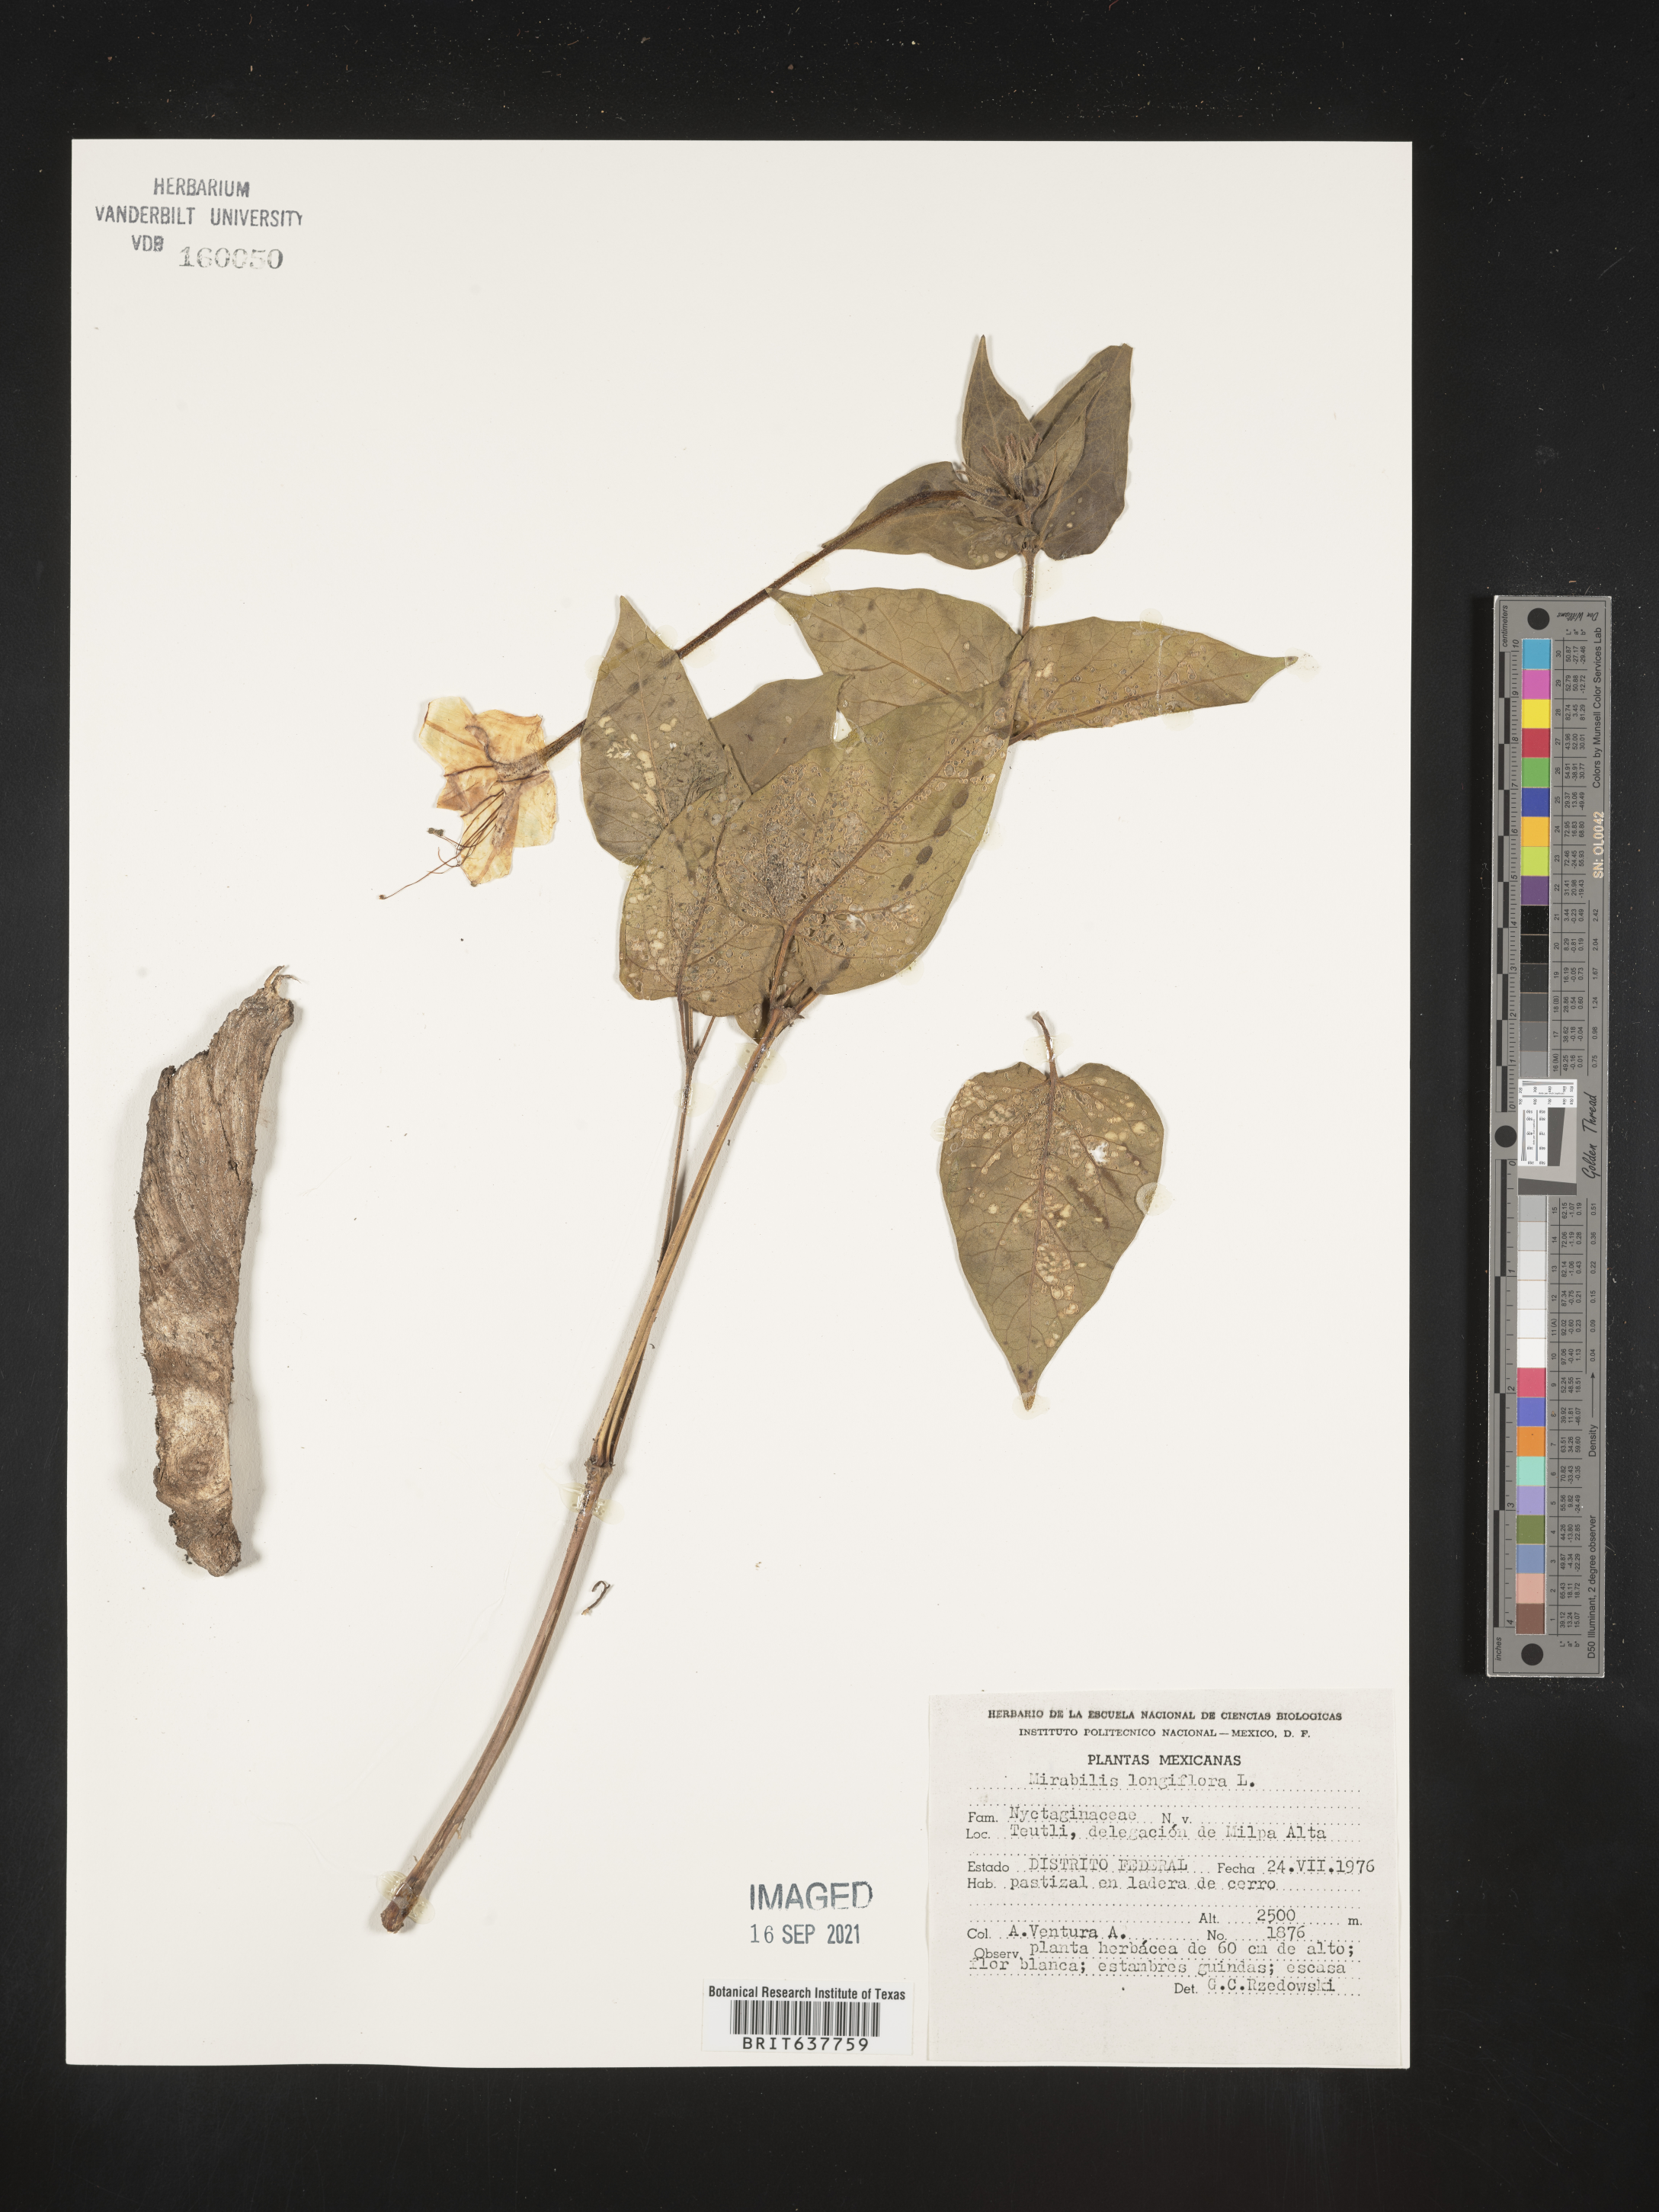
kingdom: Plantae
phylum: Tracheophyta
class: Magnoliopsida
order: Caryophyllales
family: Nyctaginaceae
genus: Mirabilis
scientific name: Mirabilis
